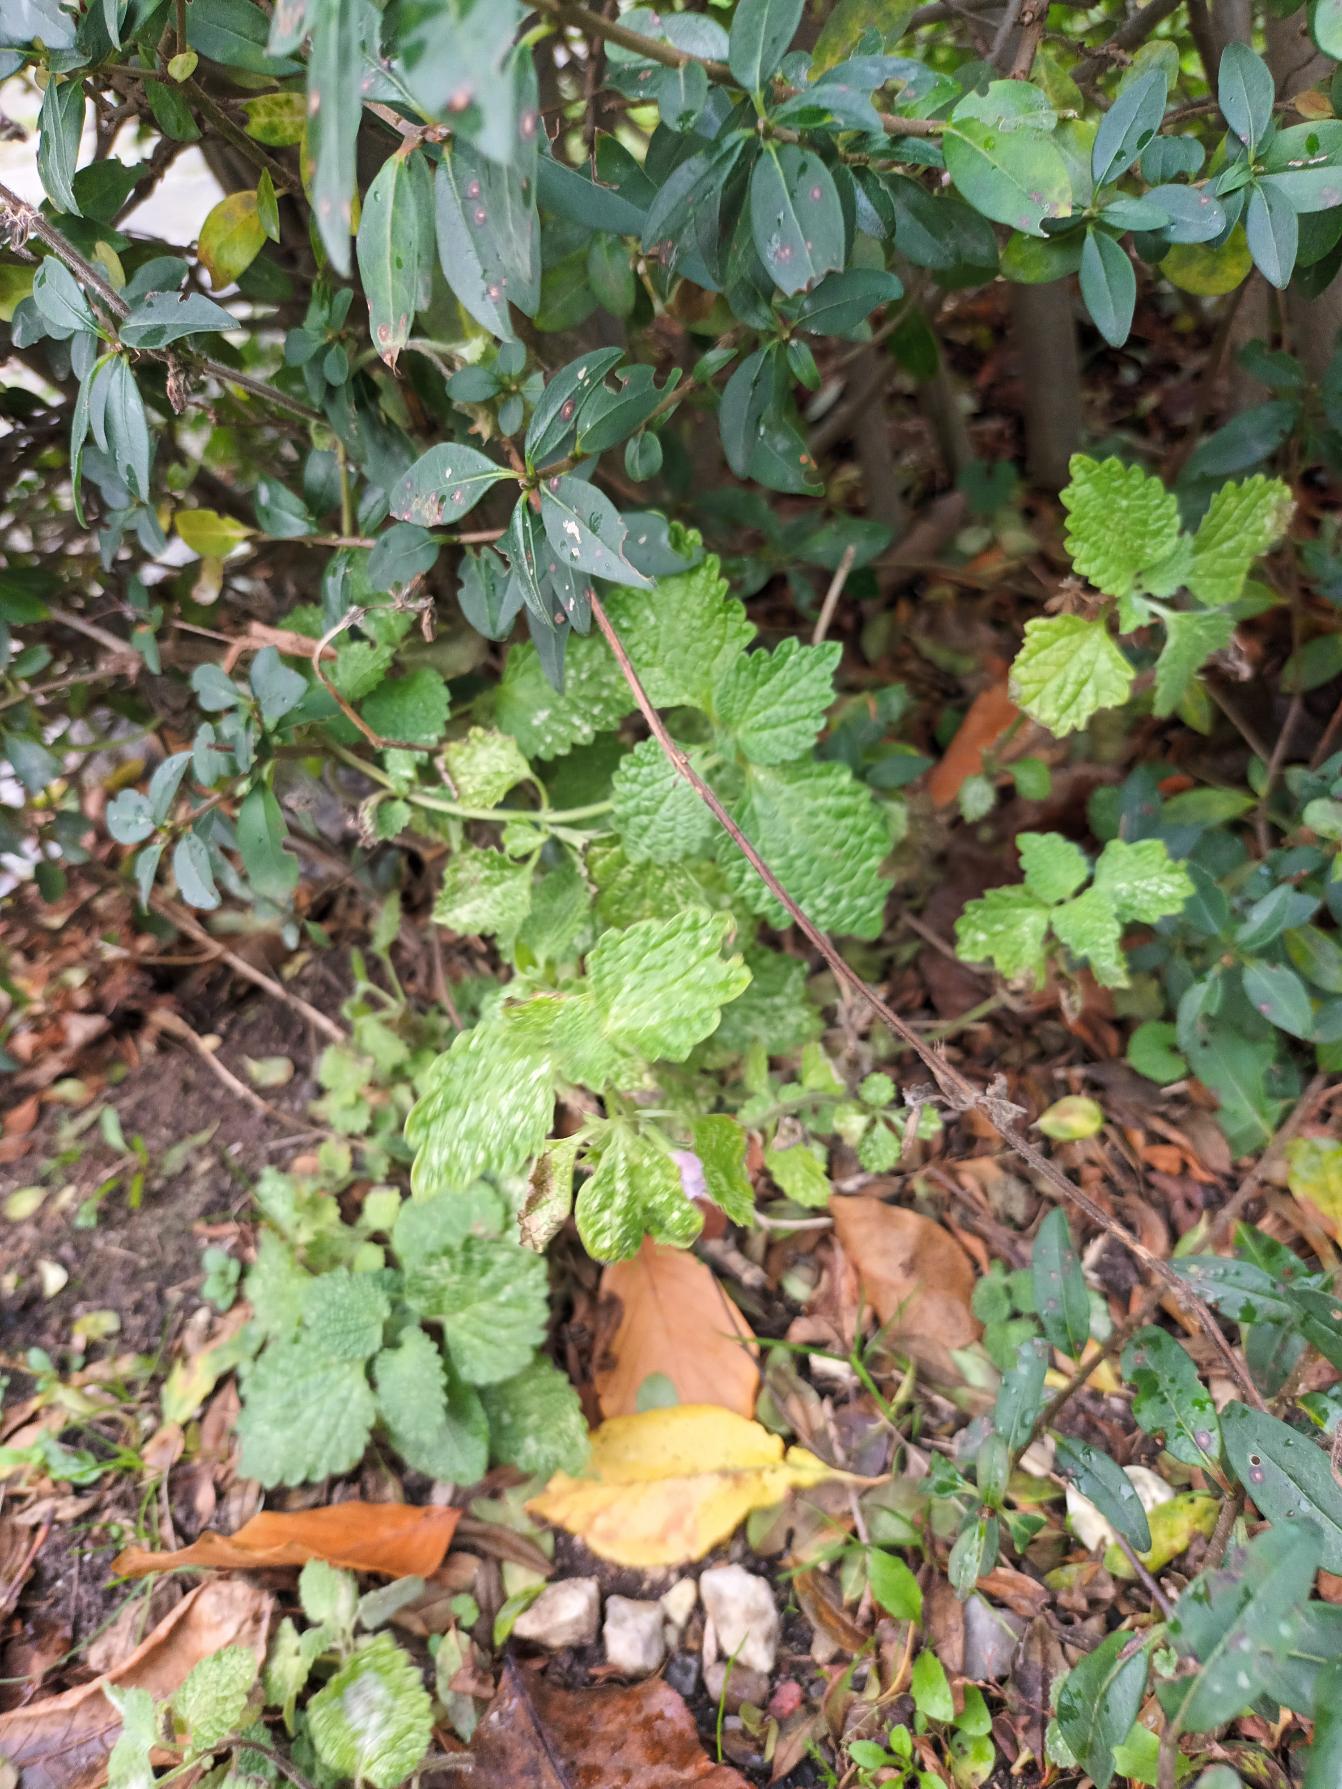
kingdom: Plantae
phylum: Tracheophyta
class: Magnoliopsida
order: Lamiales
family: Lamiaceae
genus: Ballota
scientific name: Ballota nigra
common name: Tandbæger
